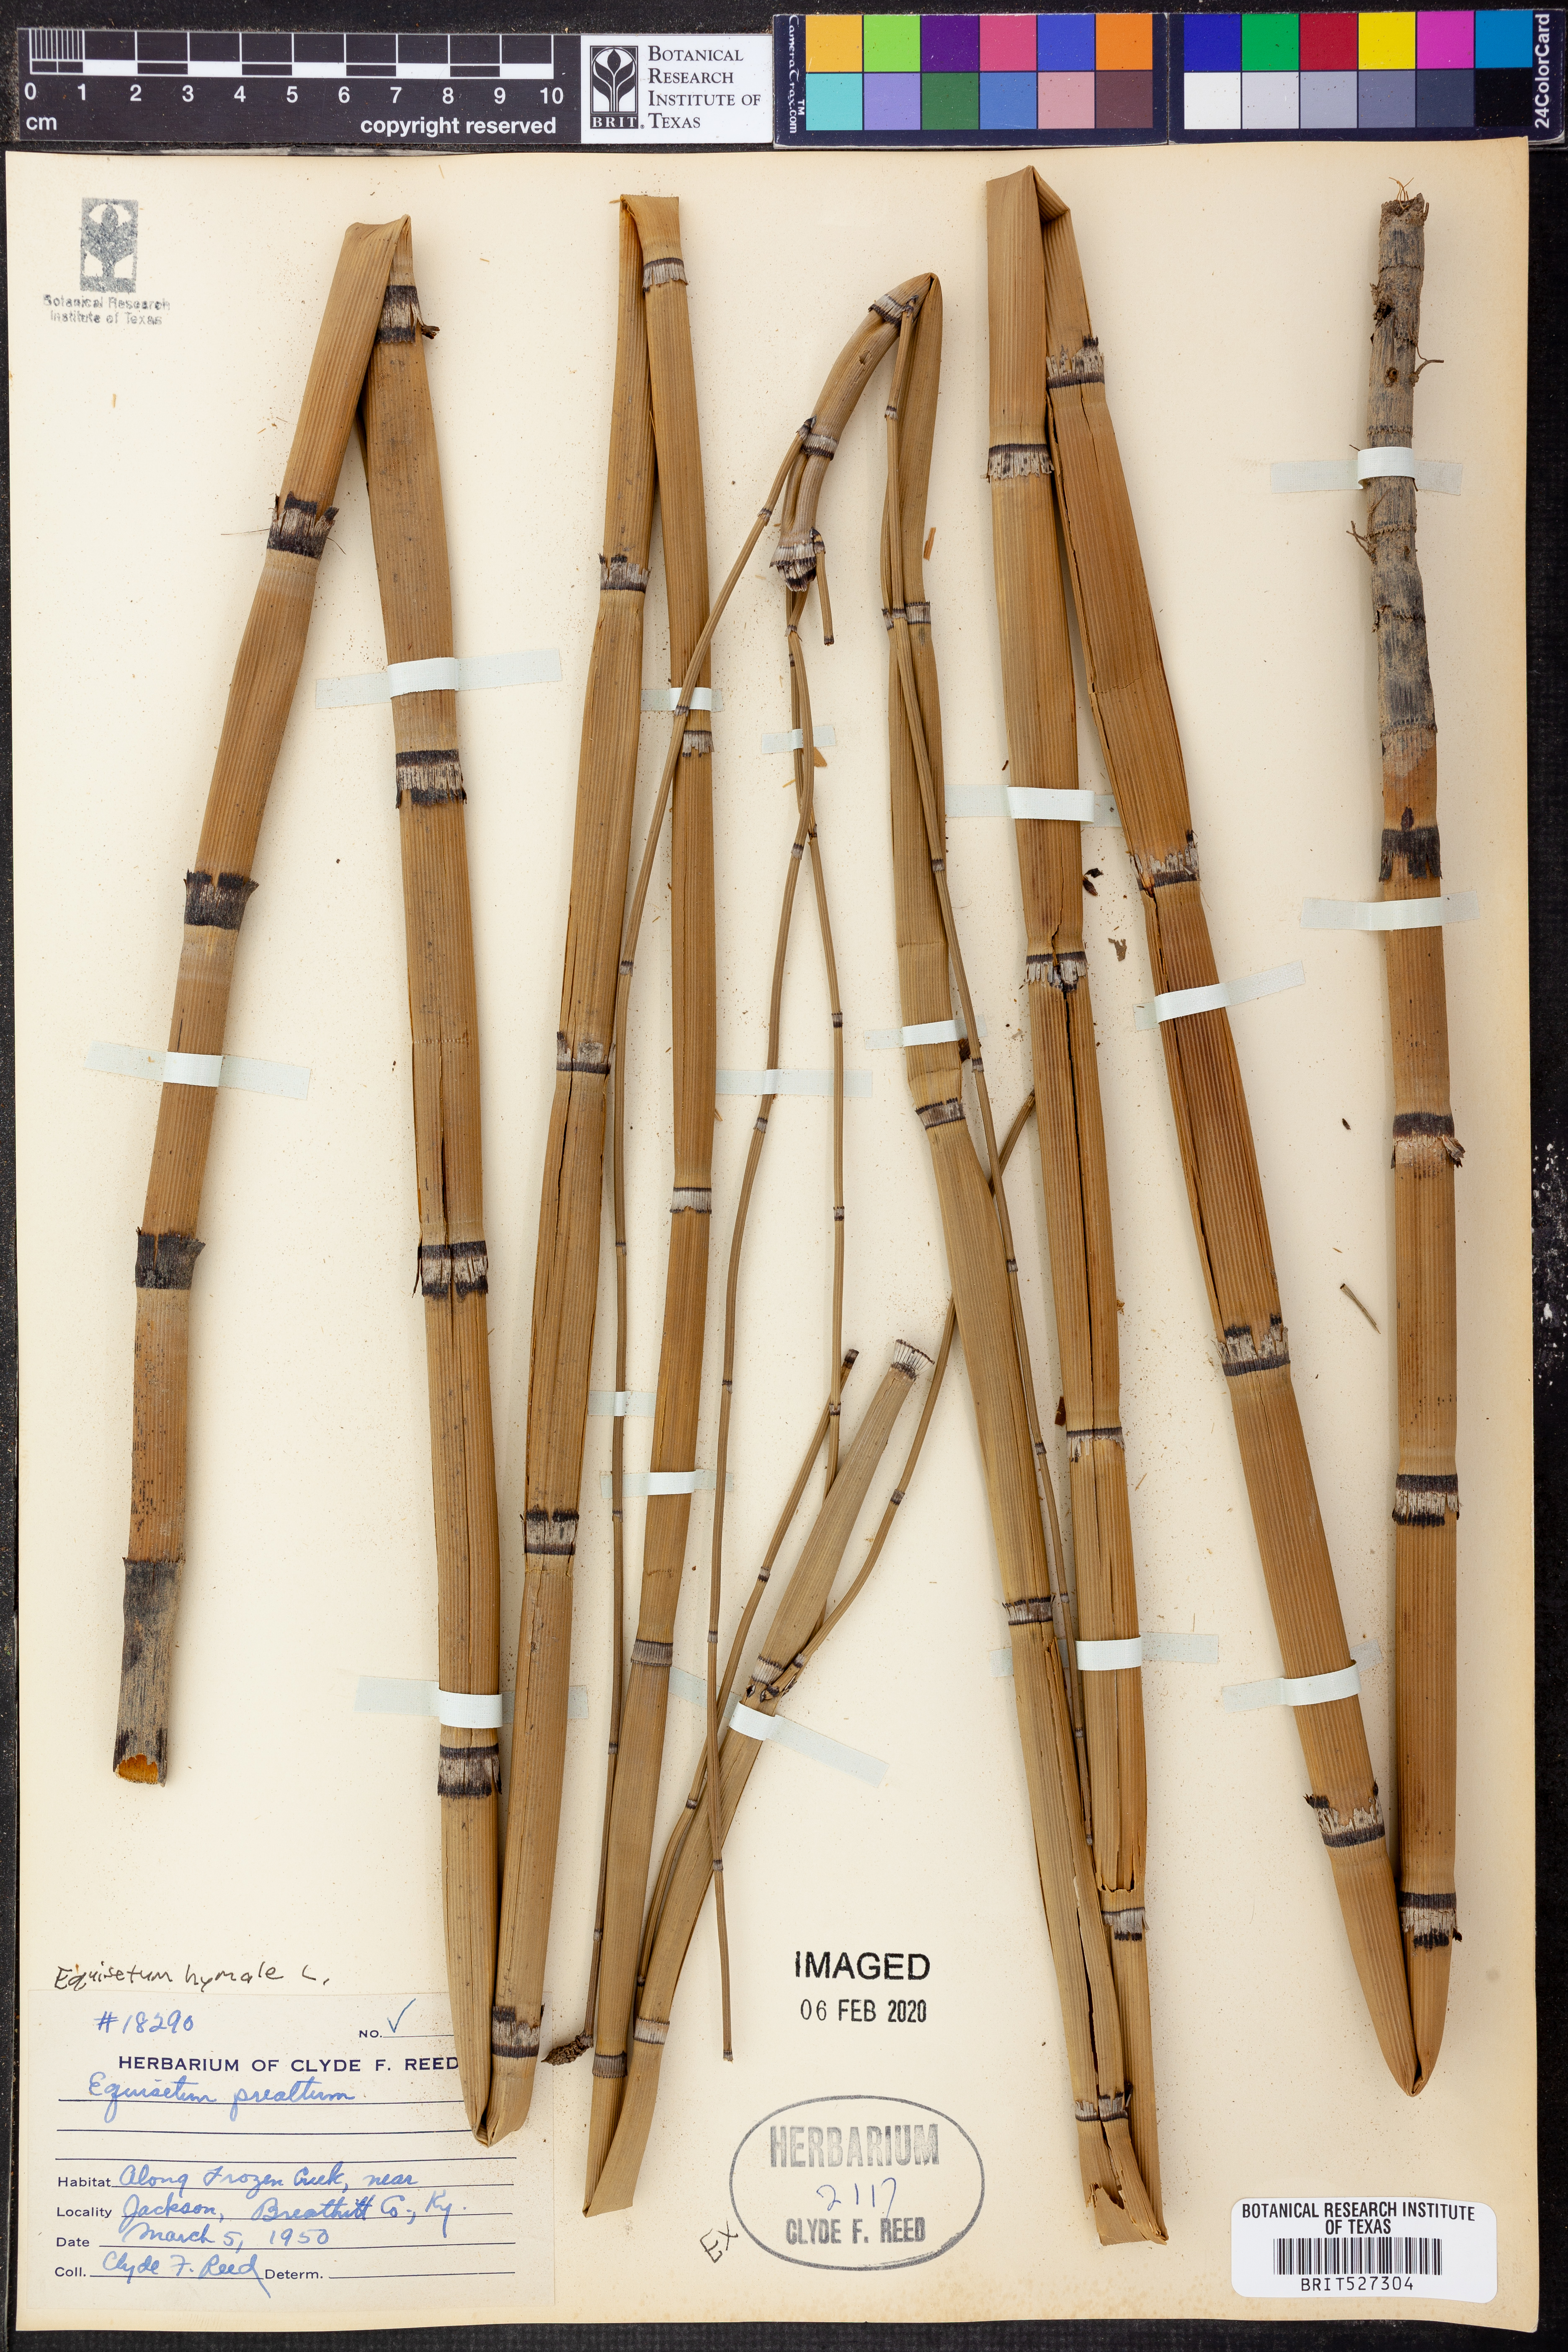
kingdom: Plantae
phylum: Tracheophyta
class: Polypodiopsida
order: Equisetales
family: Equisetaceae
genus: Equisetum
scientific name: Equisetum hyemale
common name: Rough horsetail
